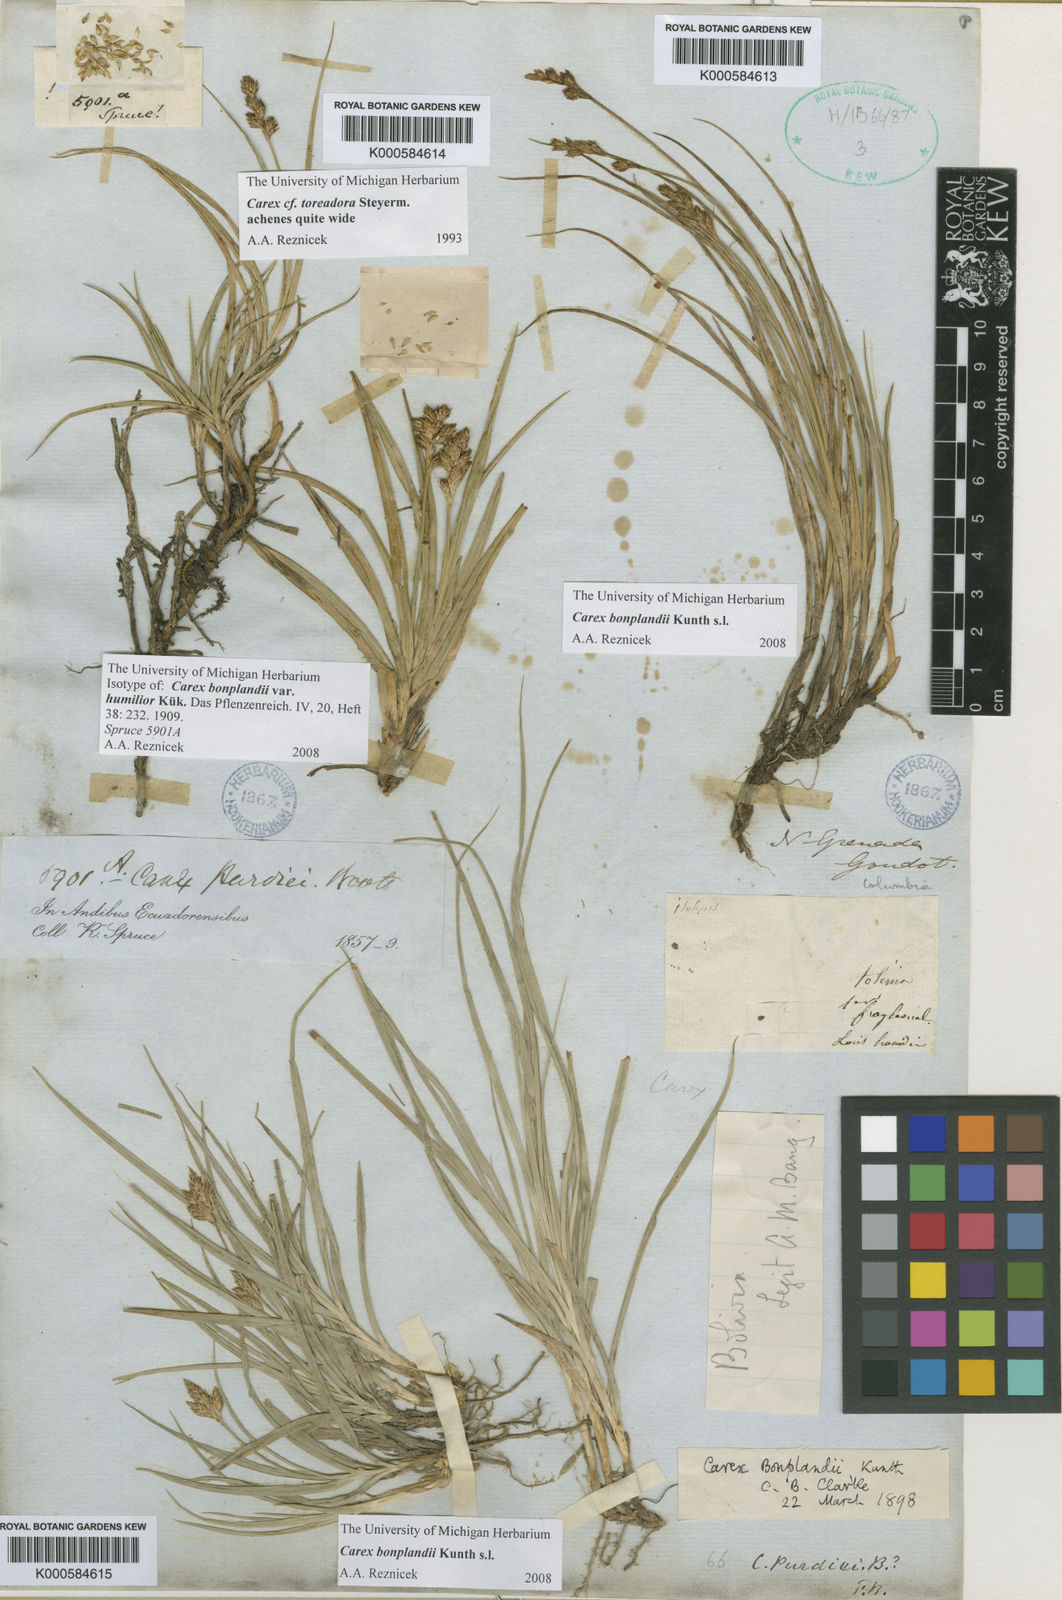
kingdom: Plantae
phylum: Tracheophyta
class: Liliopsida
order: Poales
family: Cyperaceae
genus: Carex
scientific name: Carex bonplandii
